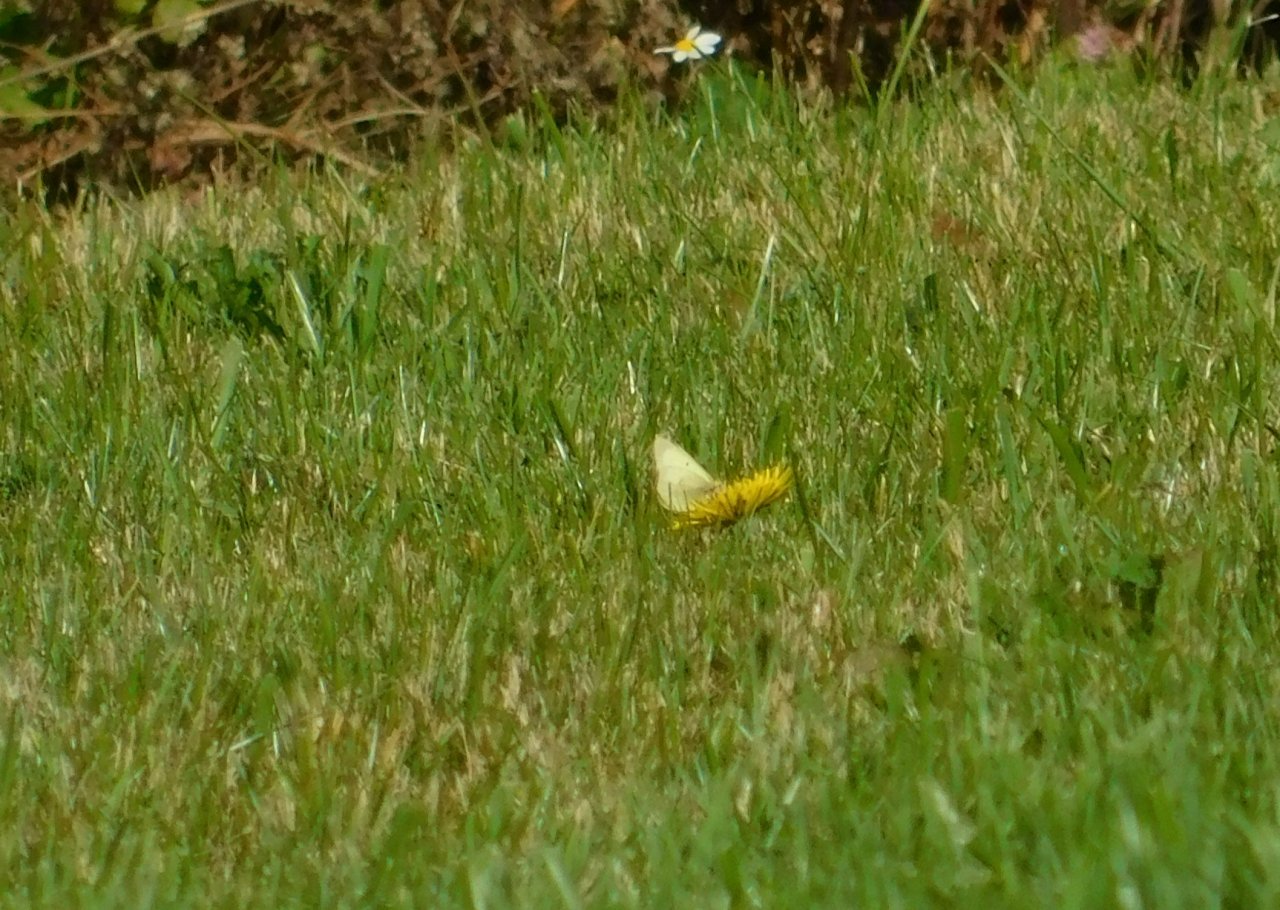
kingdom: Animalia
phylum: Arthropoda
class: Insecta
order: Lepidoptera
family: Pieridae
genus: Colias
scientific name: Colias philodice
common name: Clouded Sulphur
